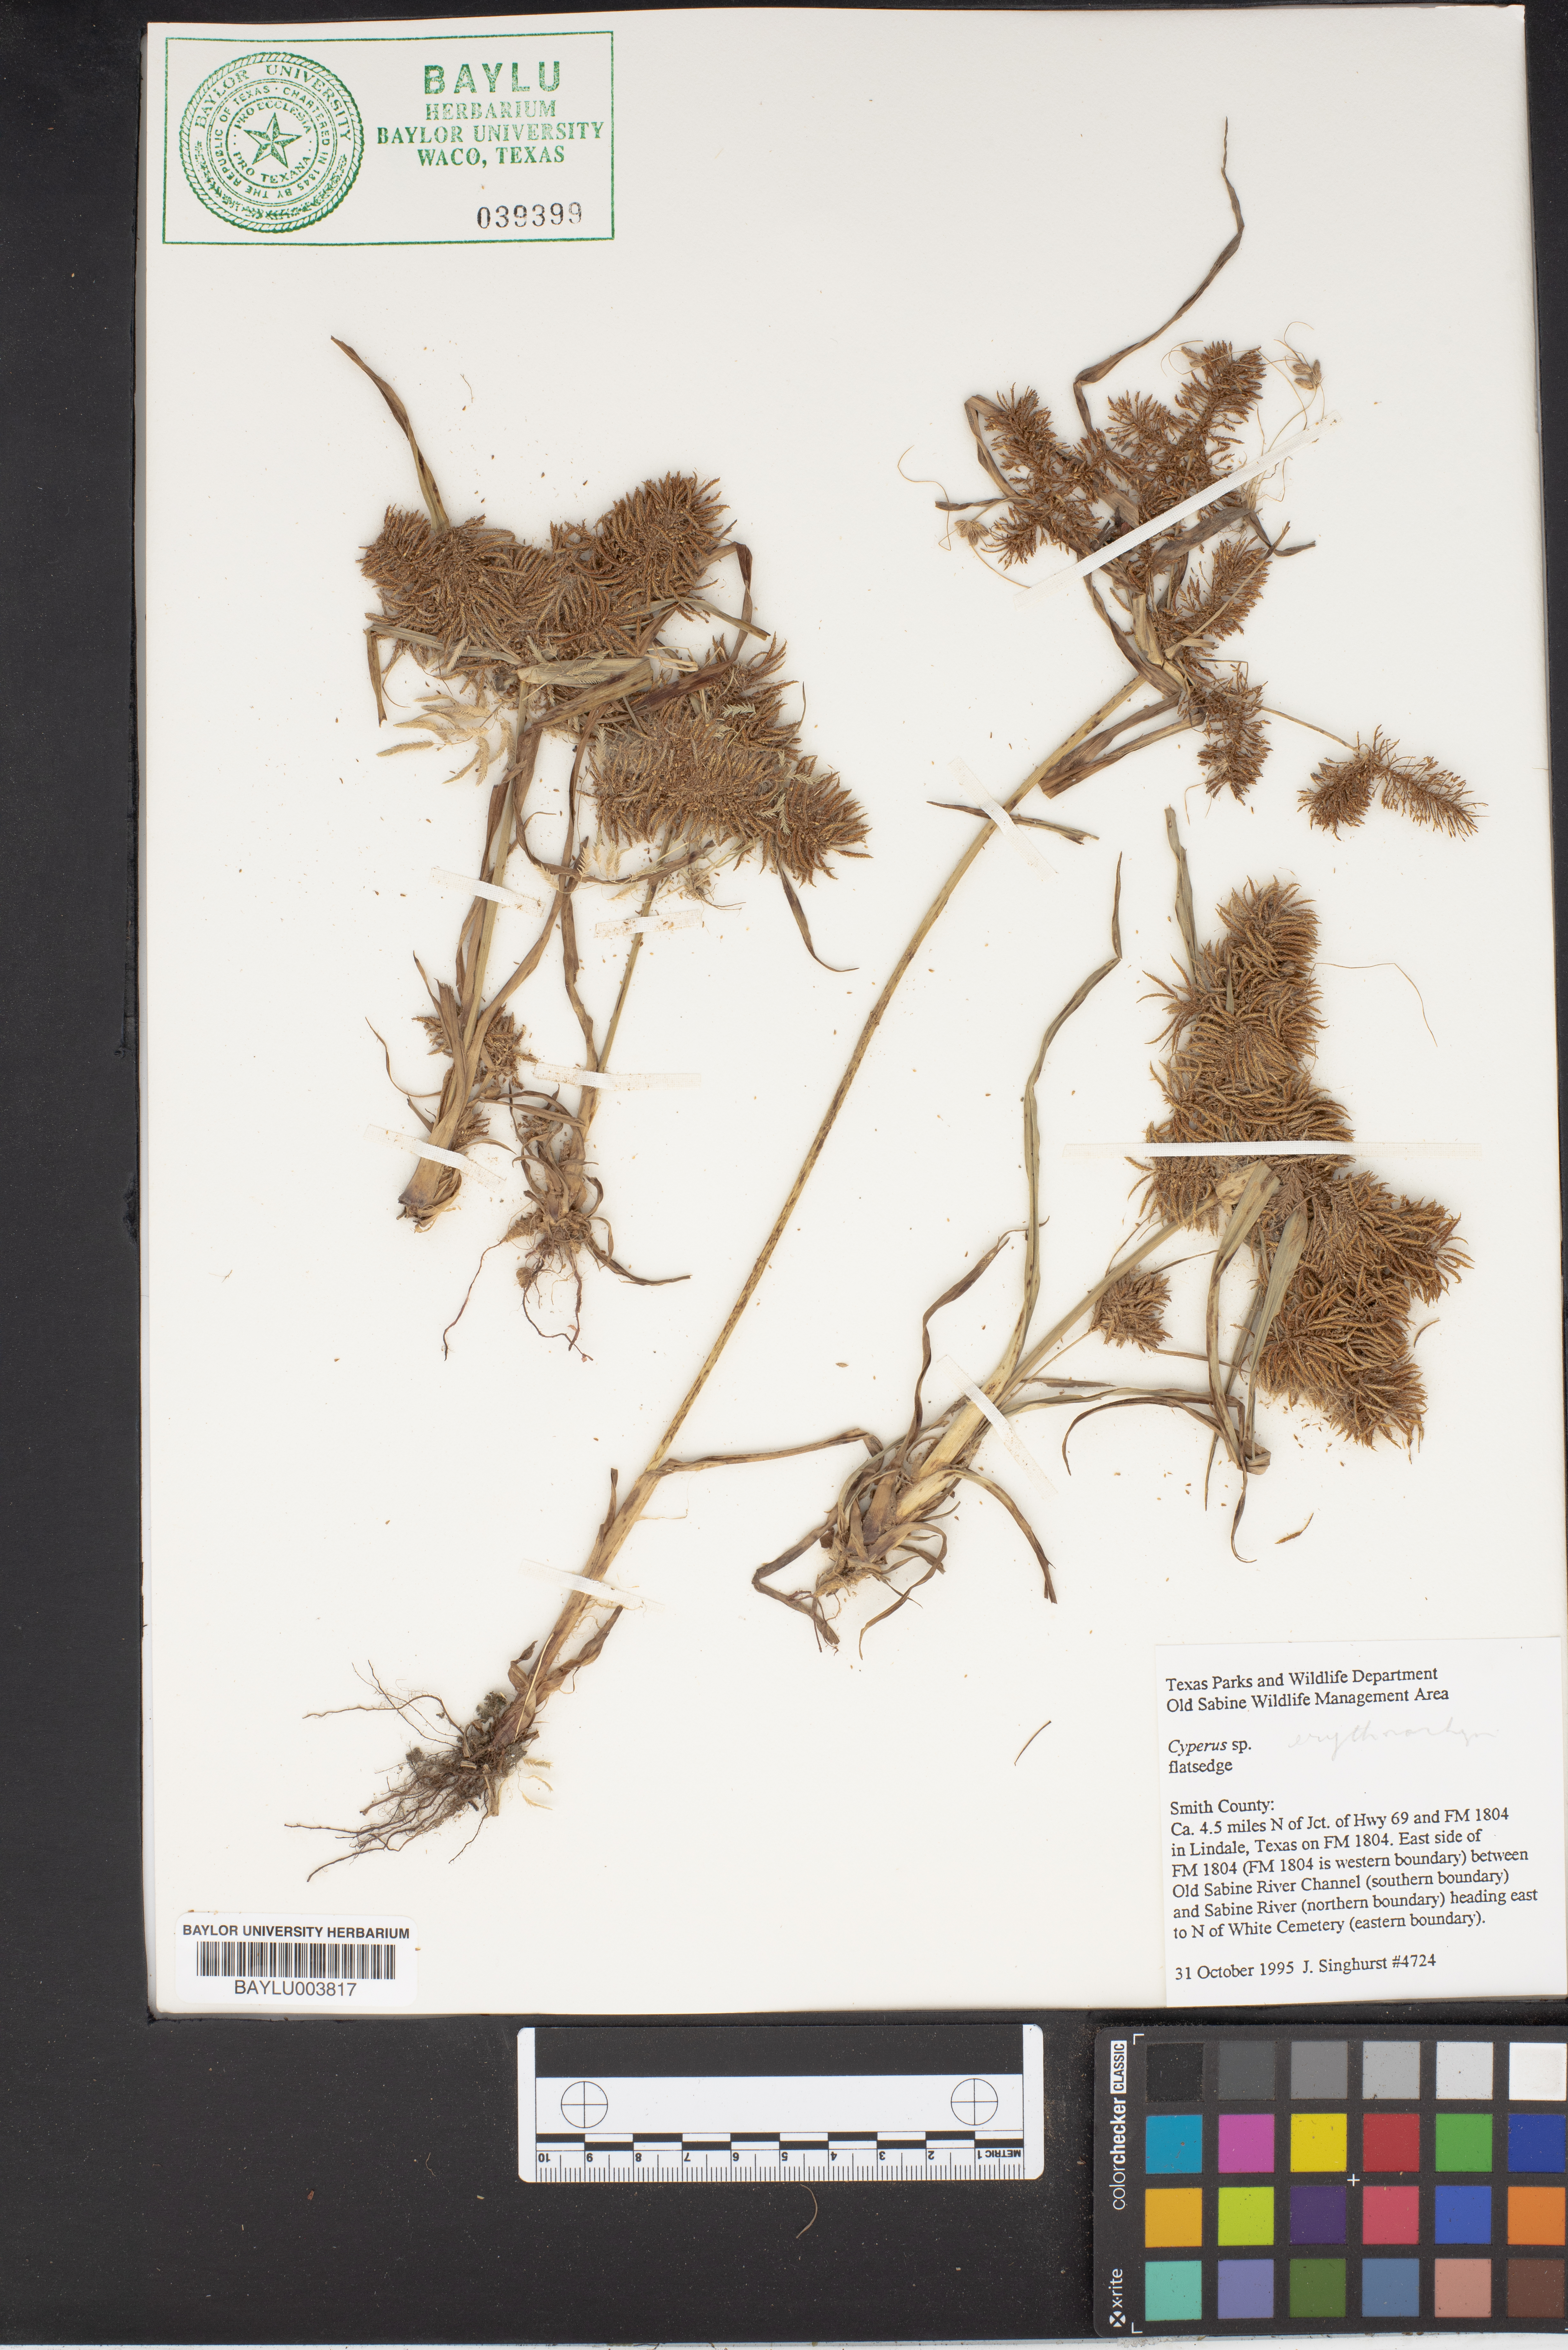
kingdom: Plantae
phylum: Tracheophyta
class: Liliopsida
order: Poales
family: Cyperaceae
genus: Cyperus
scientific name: Cyperus
